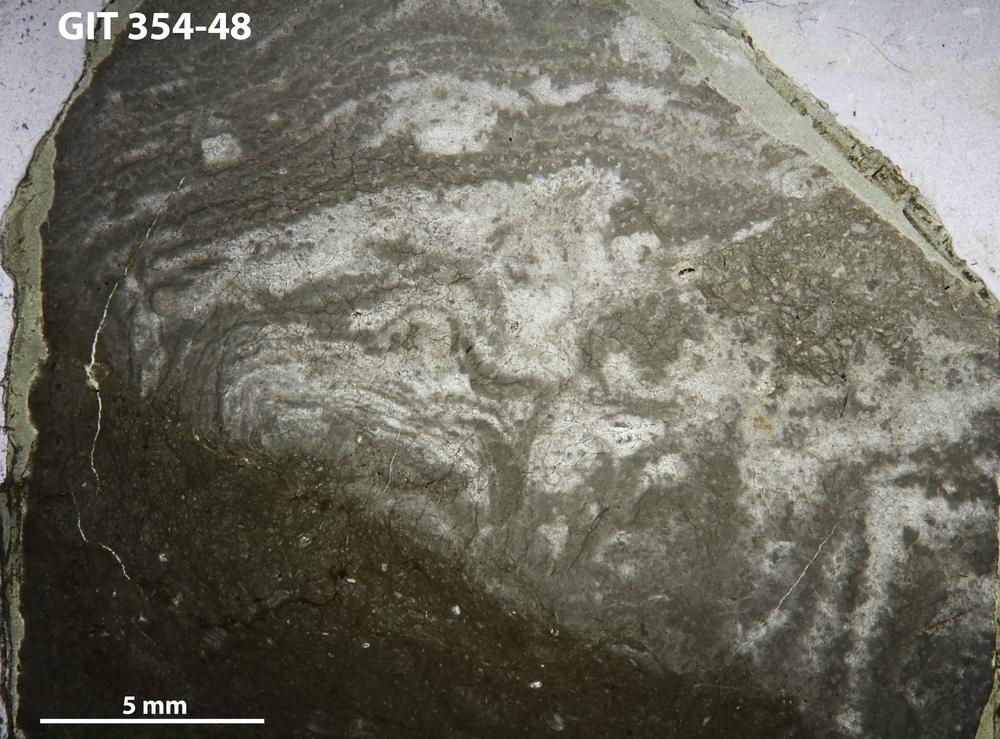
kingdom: Animalia
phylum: Porifera
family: Clathrodictyidae
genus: Clathrodictyon
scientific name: Clathrodictyon microundulatum
